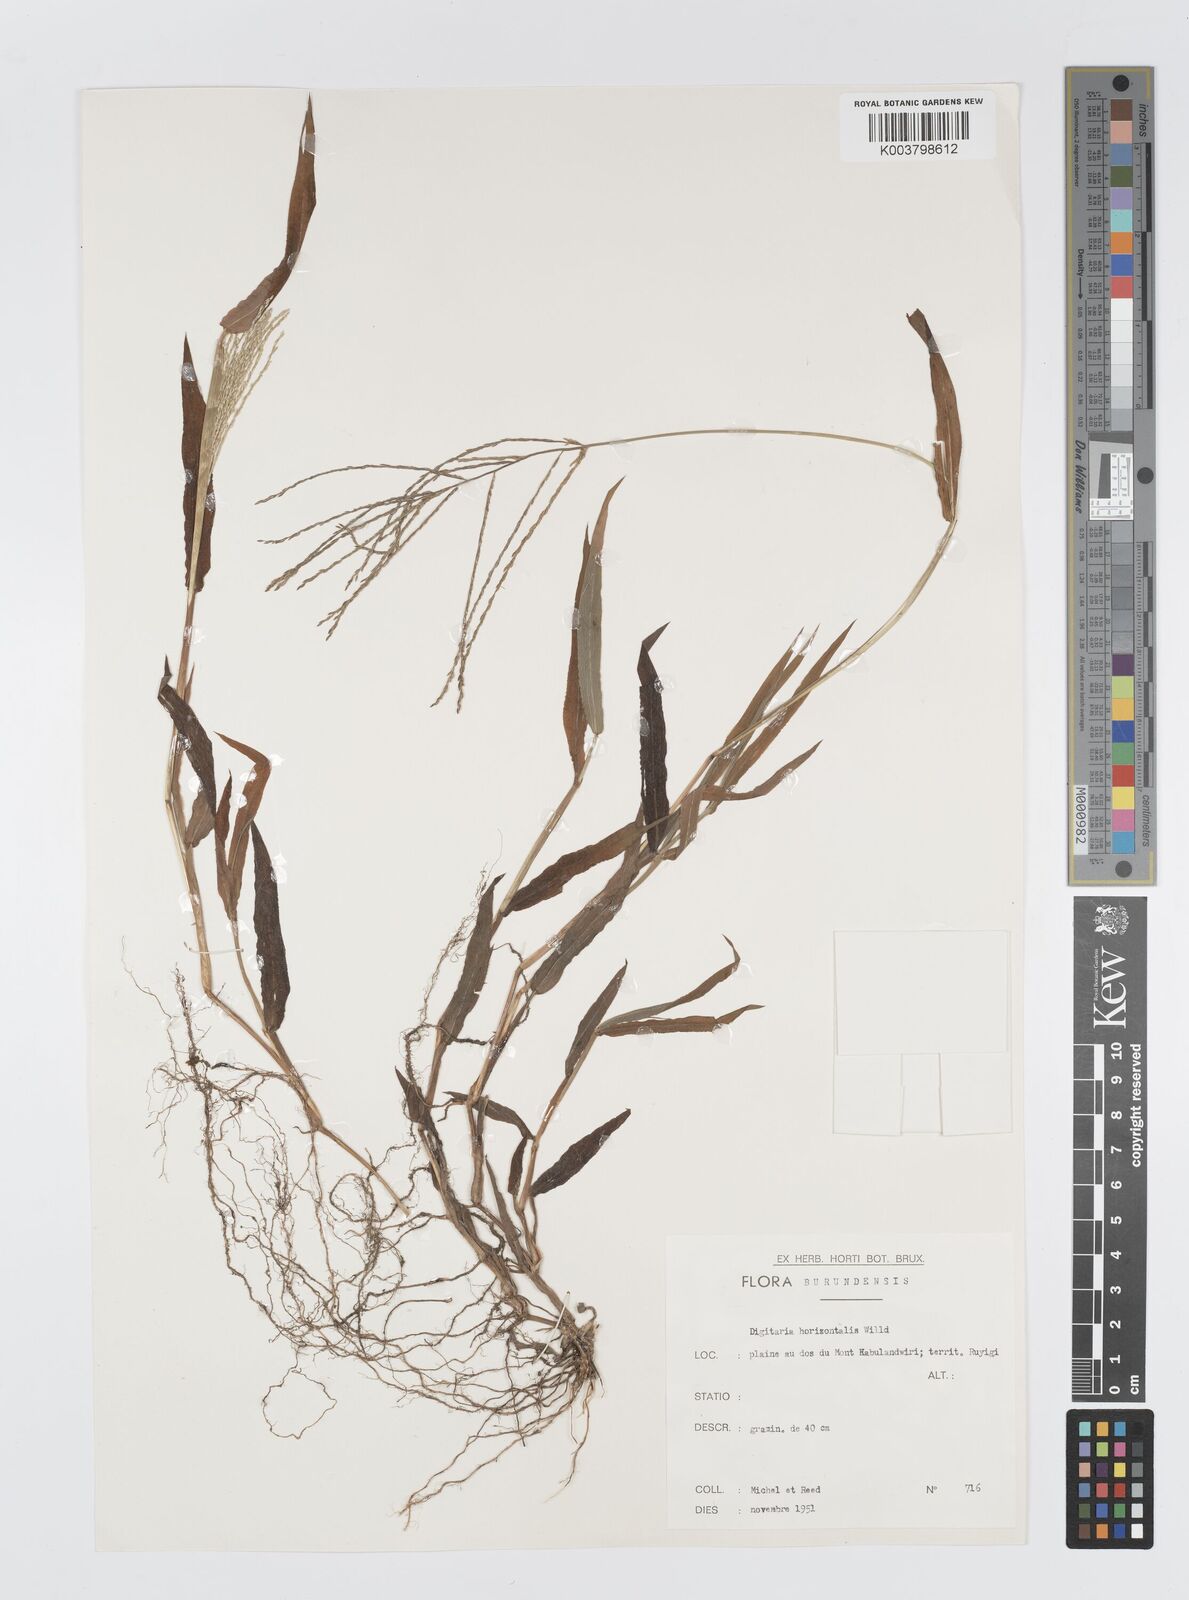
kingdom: Plantae
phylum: Tracheophyta
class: Liliopsida
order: Poales
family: Poaceae
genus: Digitaria
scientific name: Digitaria velutina
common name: Long-plume finger grass
